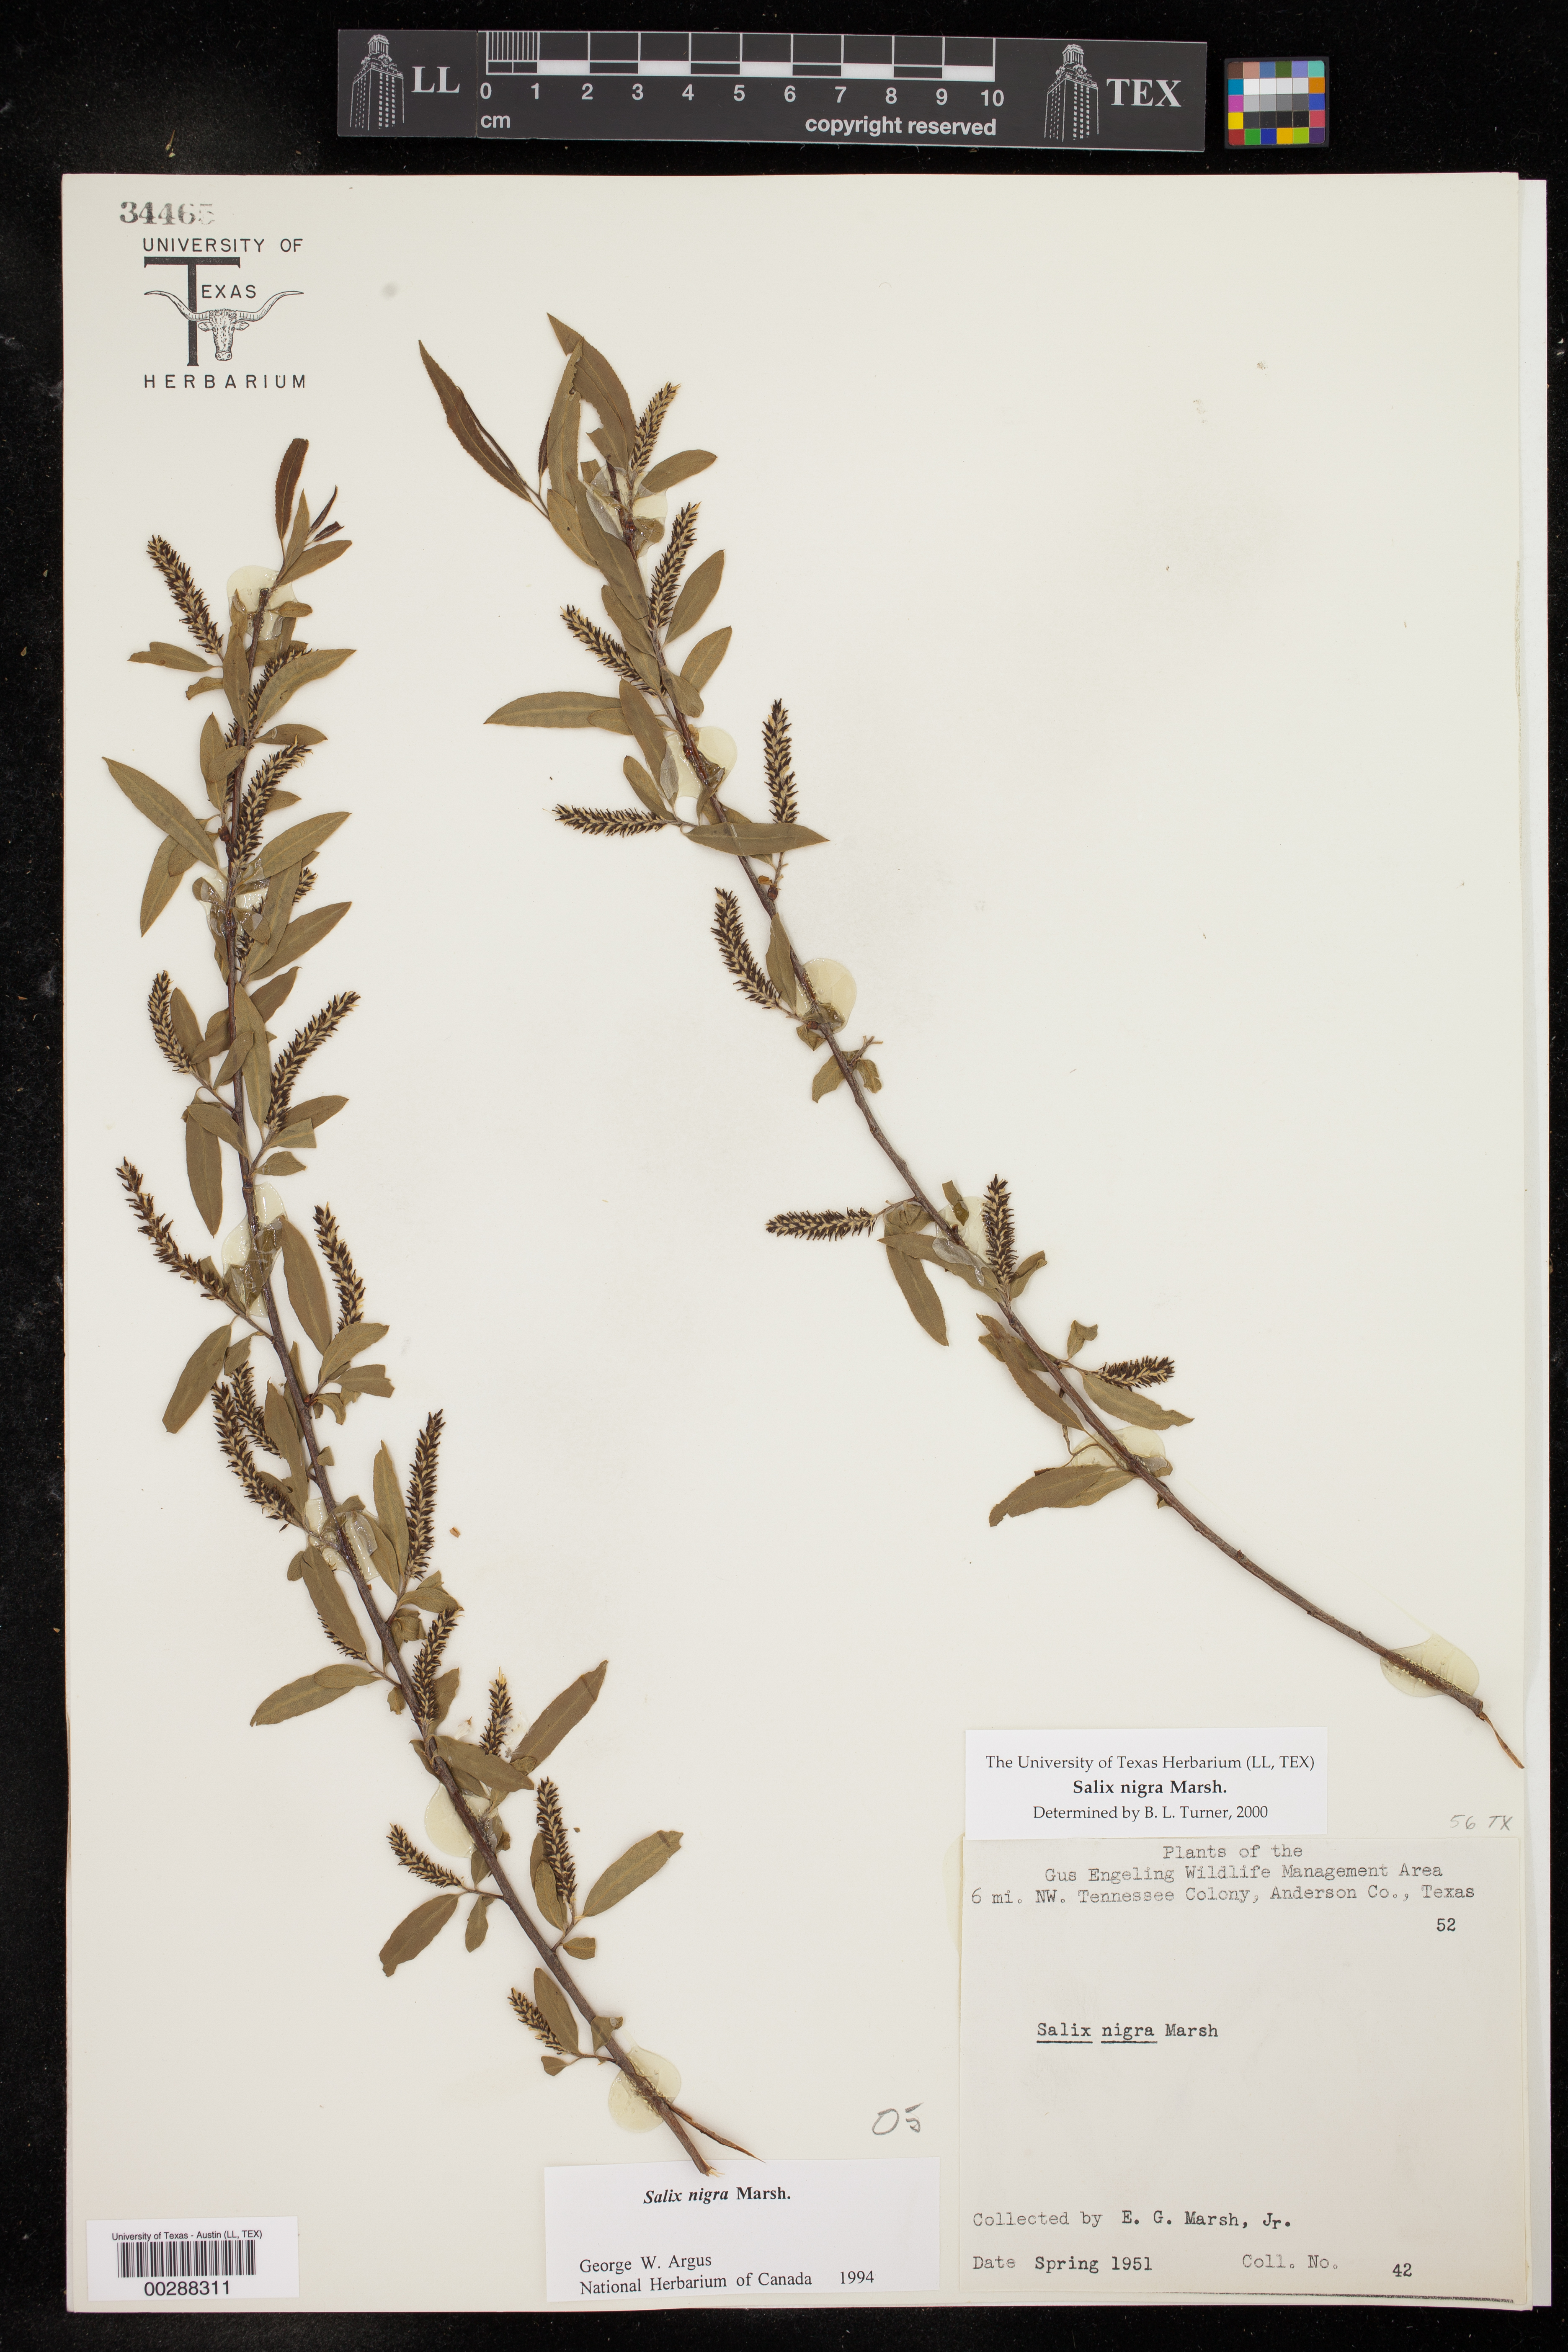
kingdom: Plantae
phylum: Tracheophyta
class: Magnoliopsida
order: Malpighiales
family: Salicaceae
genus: Salix
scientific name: Salix nigra
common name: Black willow
